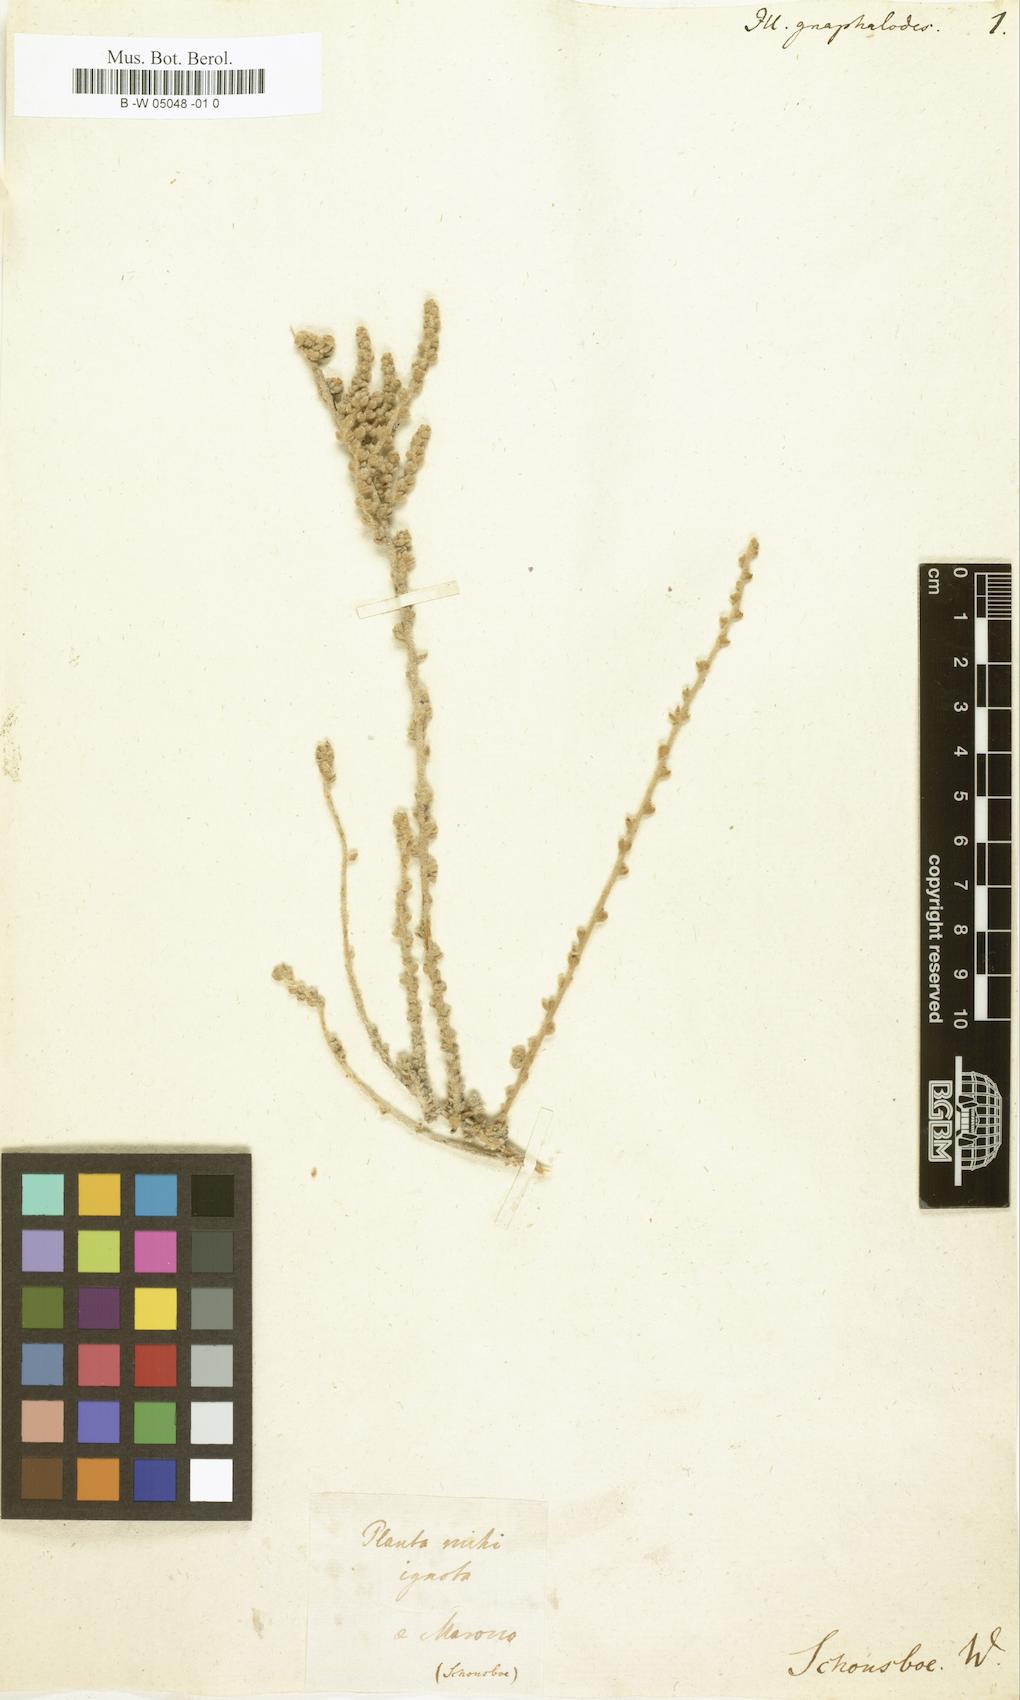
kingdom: Plantae
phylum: Tracheophyta
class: Magnoliopsida
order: Caryophyllales
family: Caryophyllaceae
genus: Polycarpaea
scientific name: Polycarpaea nivea
